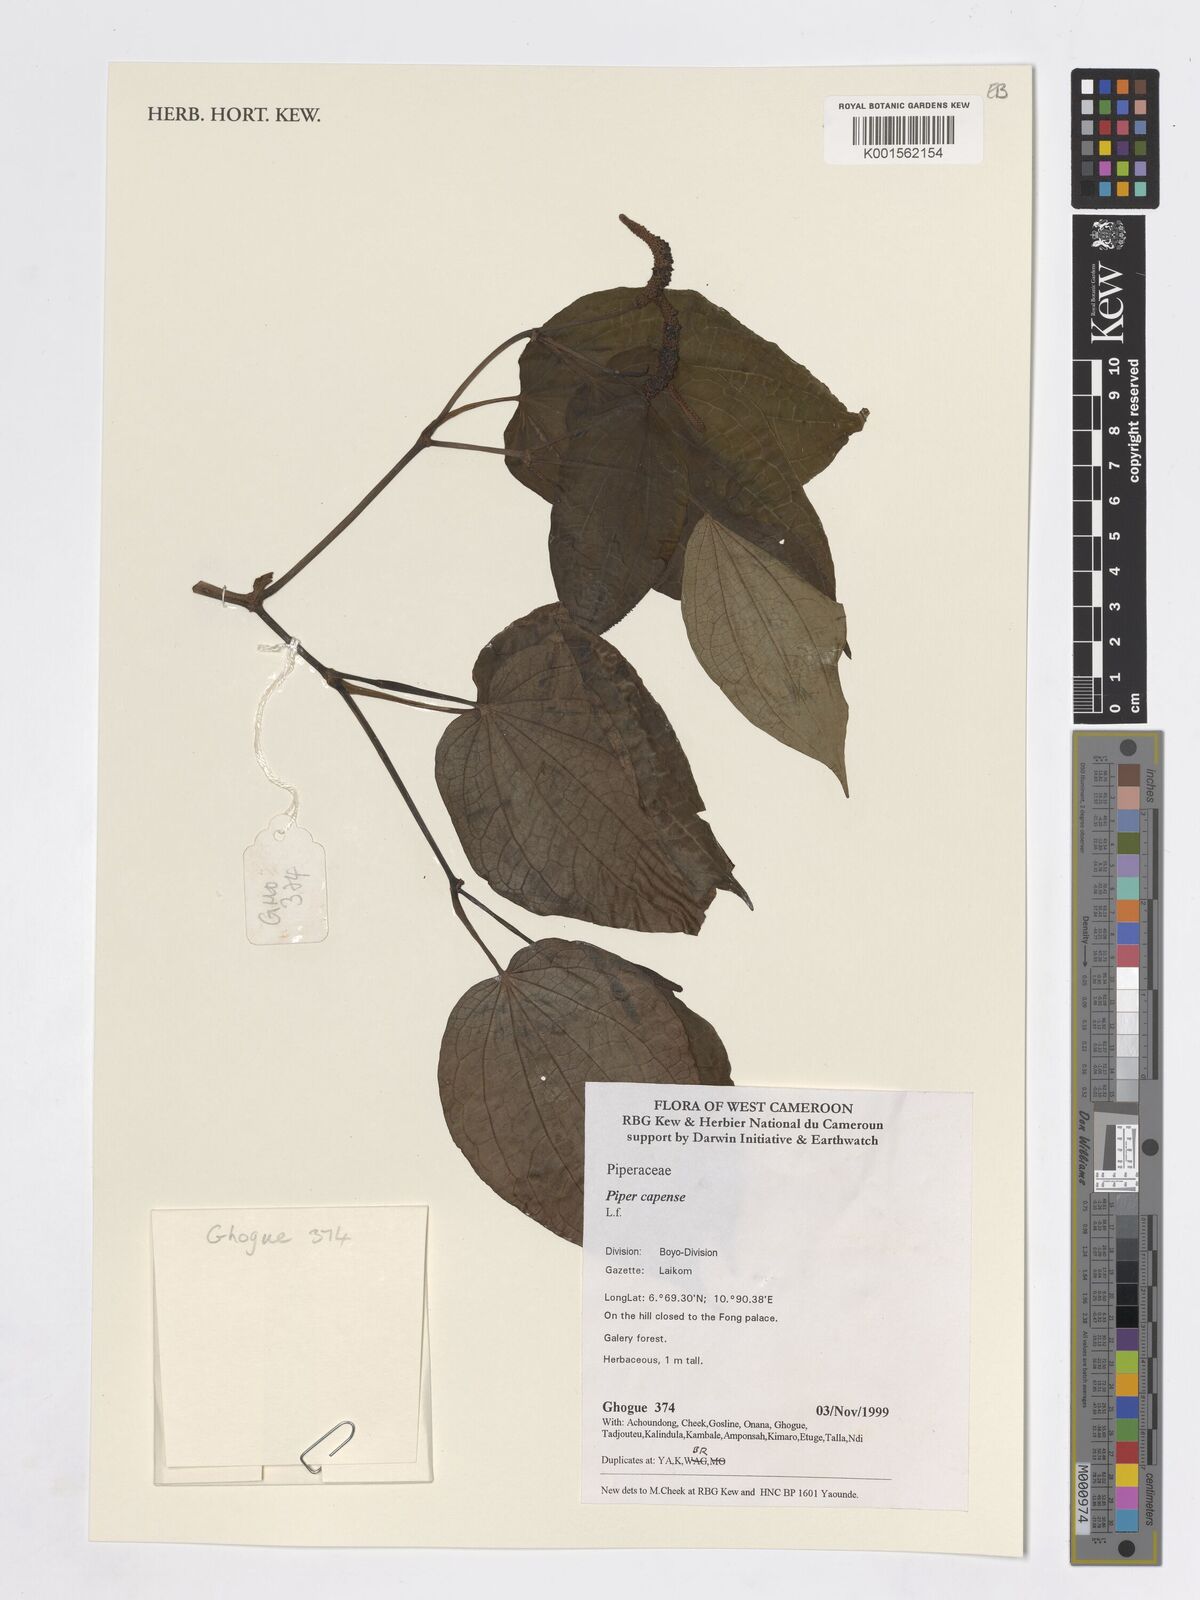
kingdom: Plantae
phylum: Tracheophyta
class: Magnoliopsida
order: Piperales
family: Piperaceae
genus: Piper
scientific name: Piper capense
